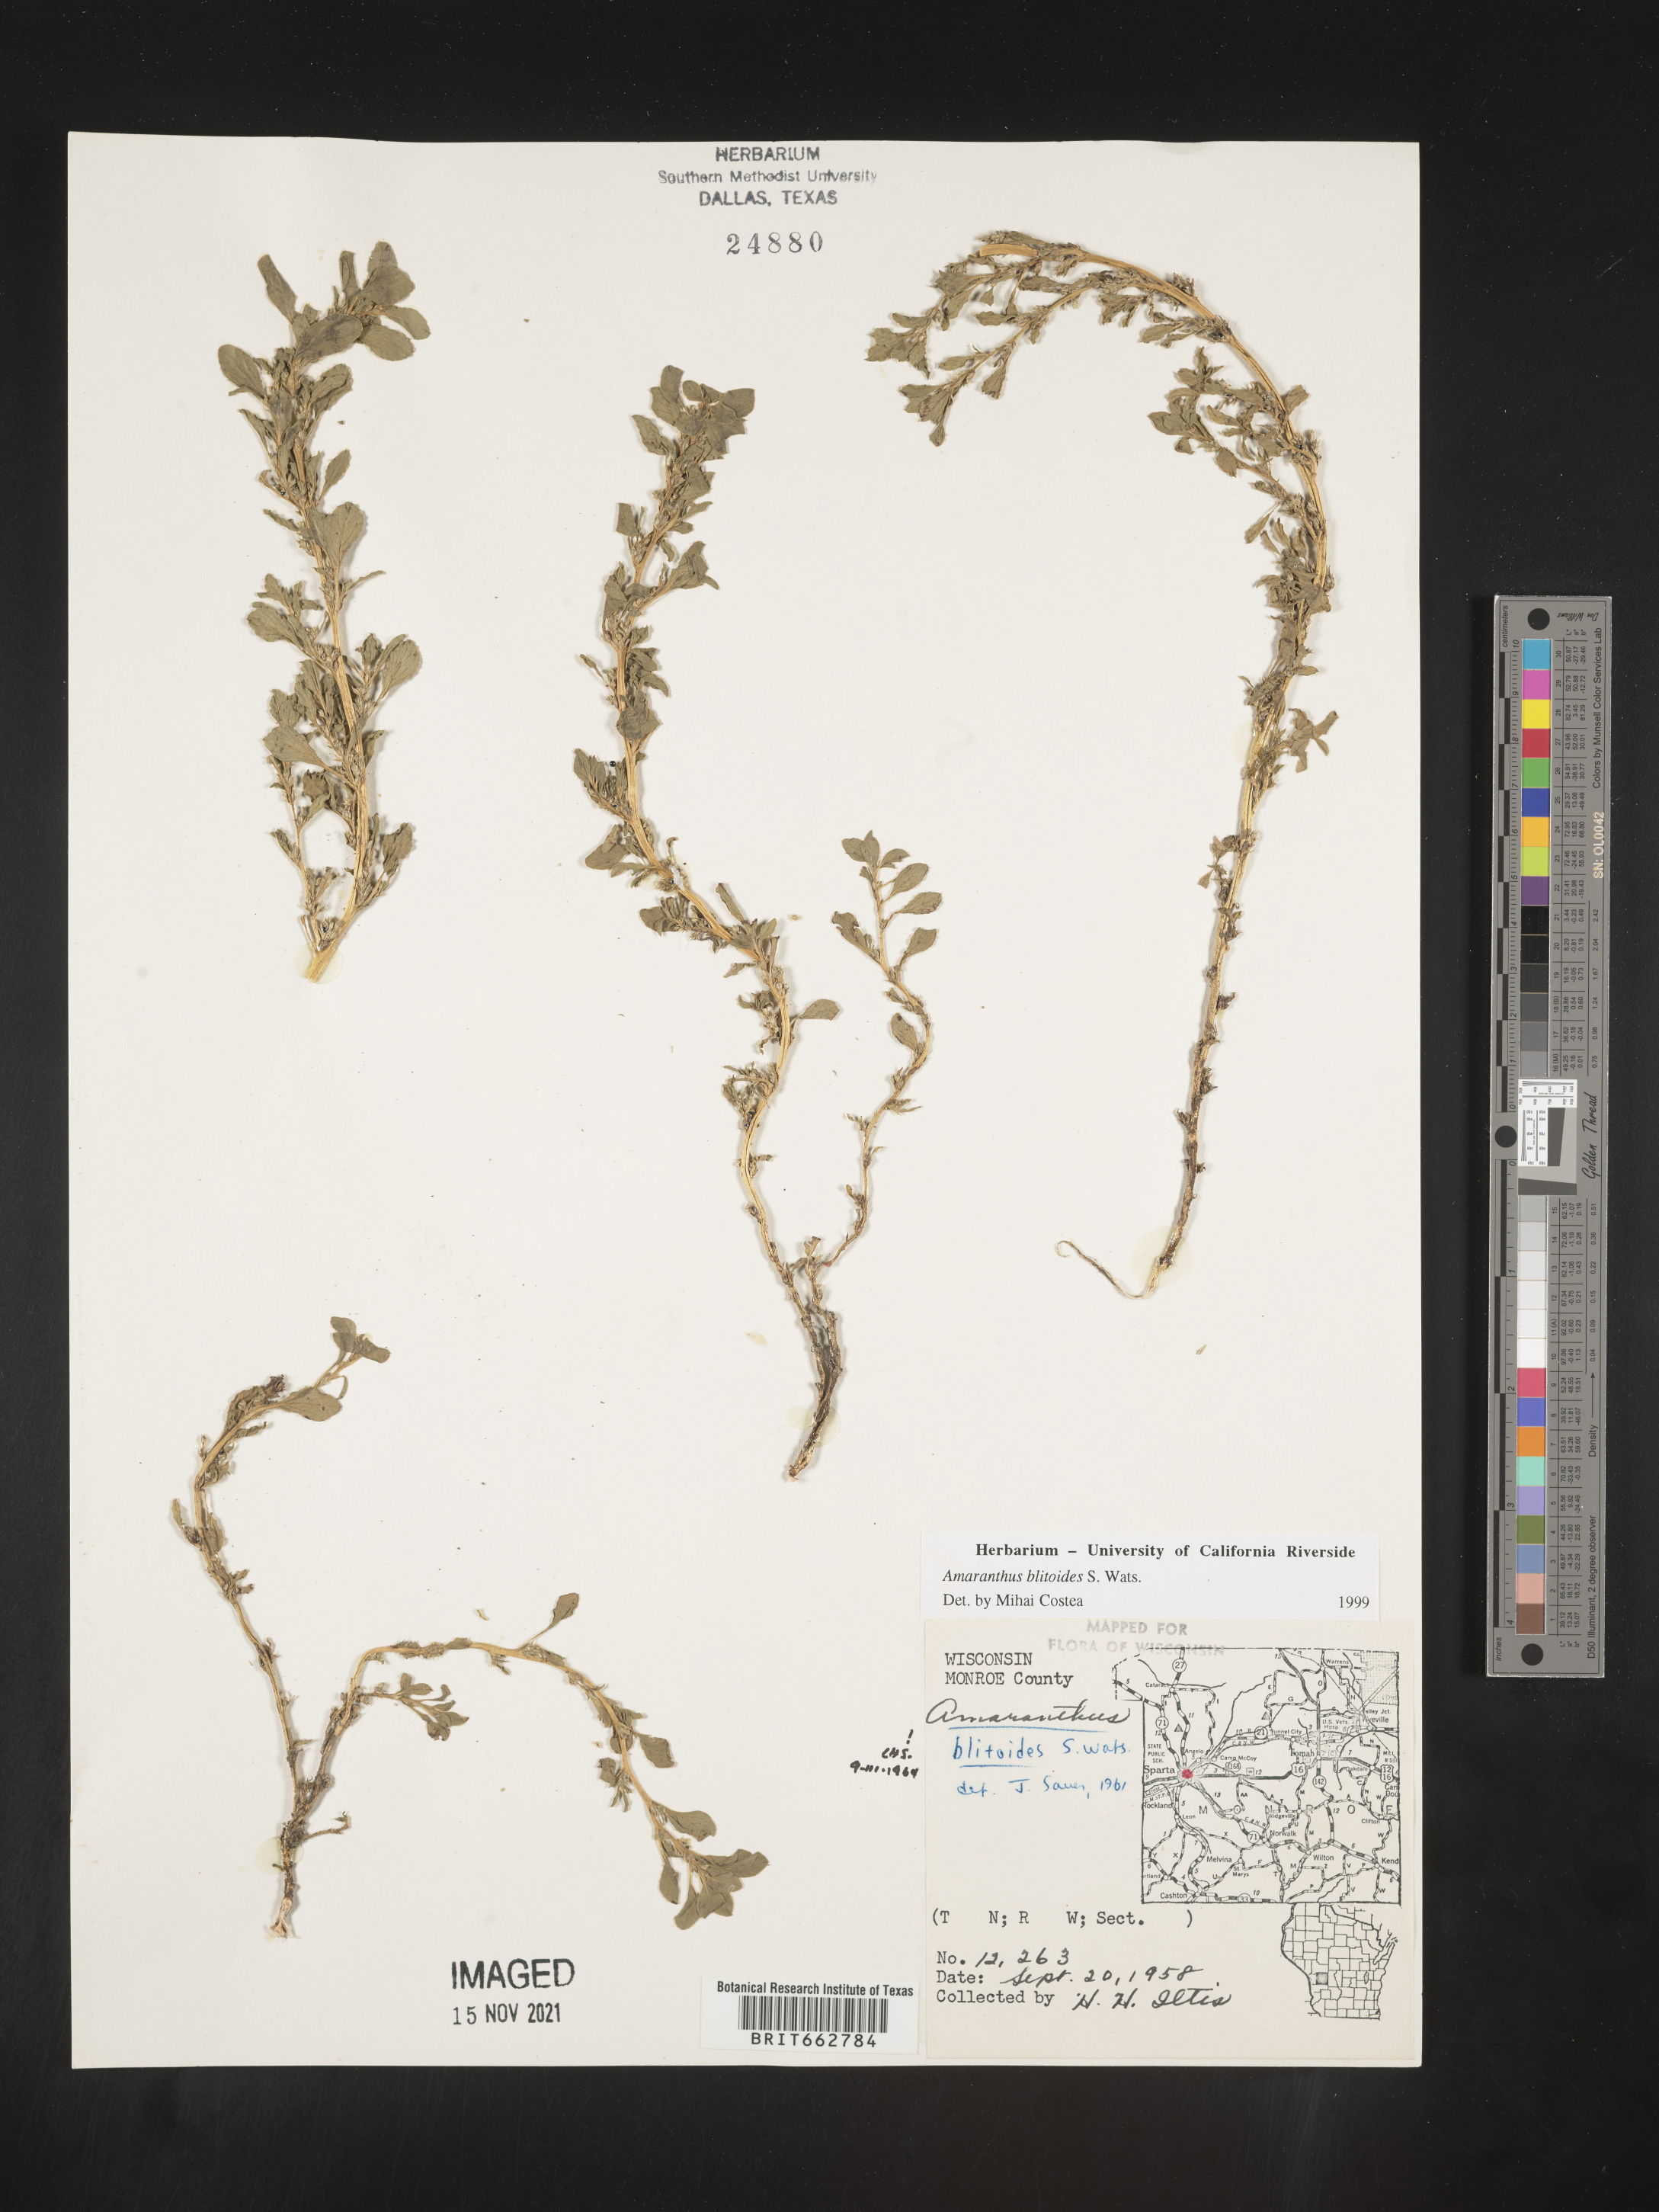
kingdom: Plantae
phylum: Tracheophyta
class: Magnoliopsida
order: Caryophyllales
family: Amaranthaceae
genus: Amaranthus
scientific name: Amaranthus blitoides
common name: Prostrate pigweed
